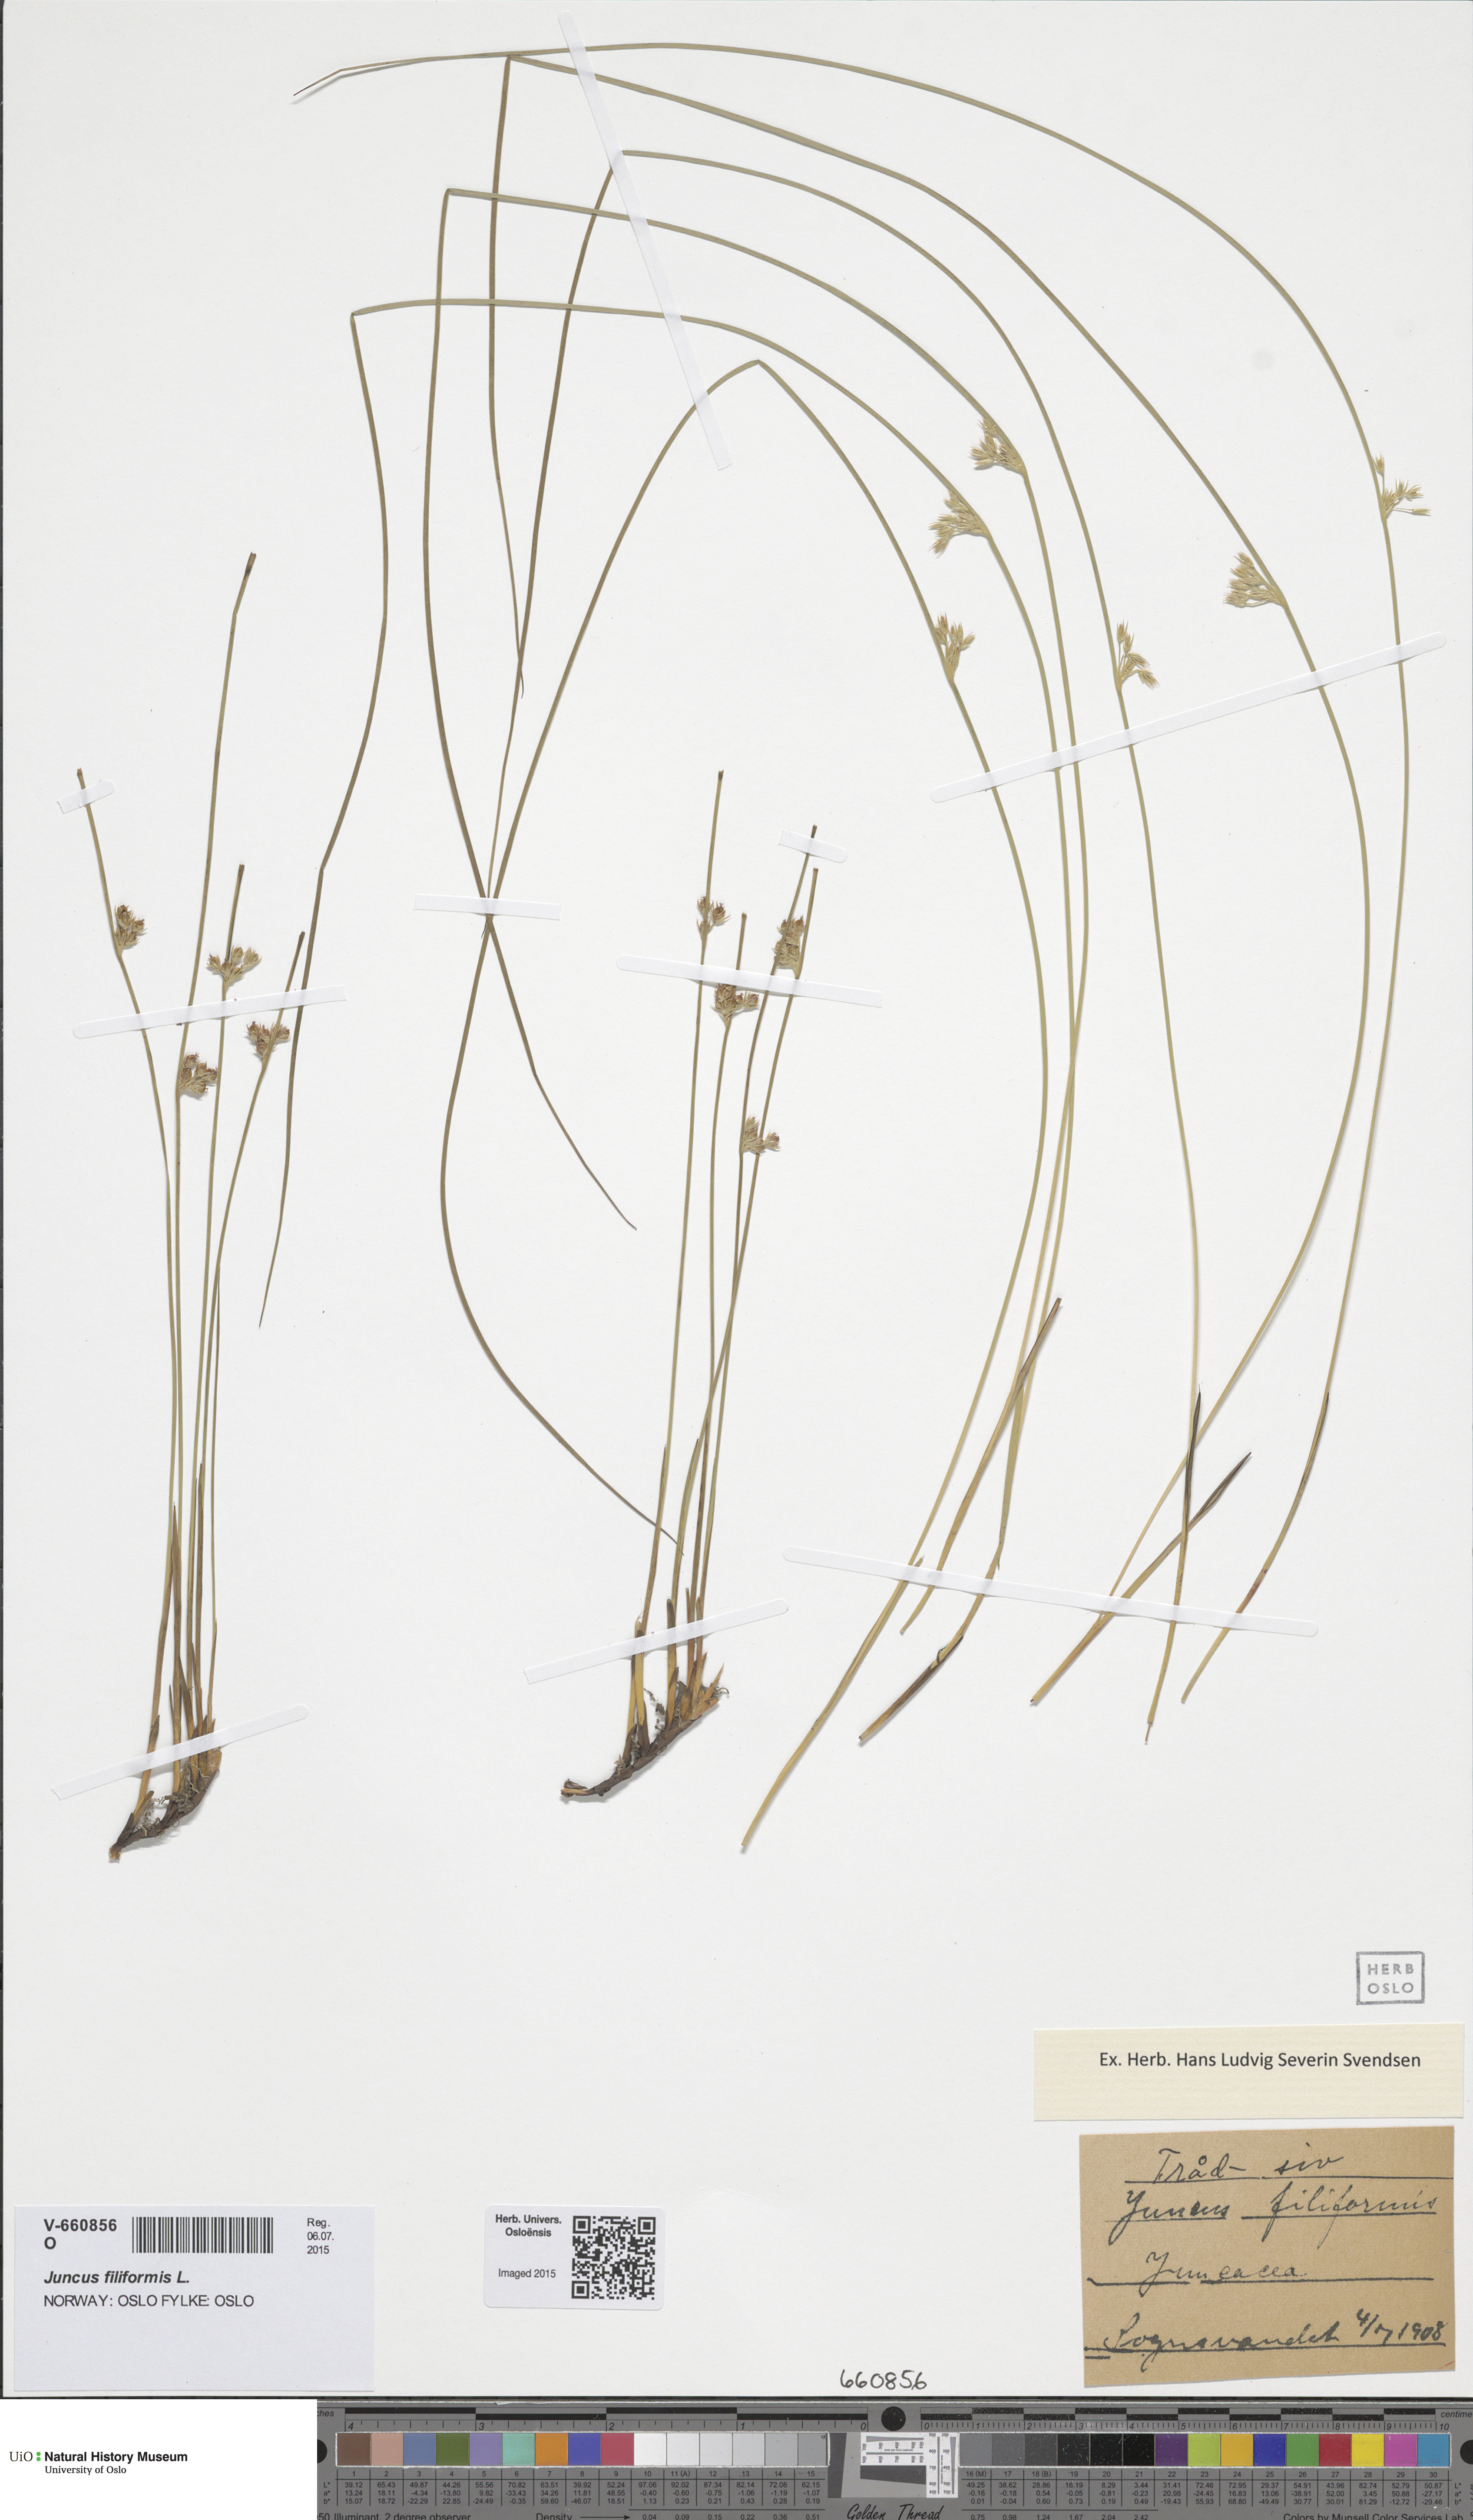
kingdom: Plantae
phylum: Tracheophyta
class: Liliopsida
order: Poales
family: Juncaceae
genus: Juncus
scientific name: Juncus filiformis
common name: Thread rush
